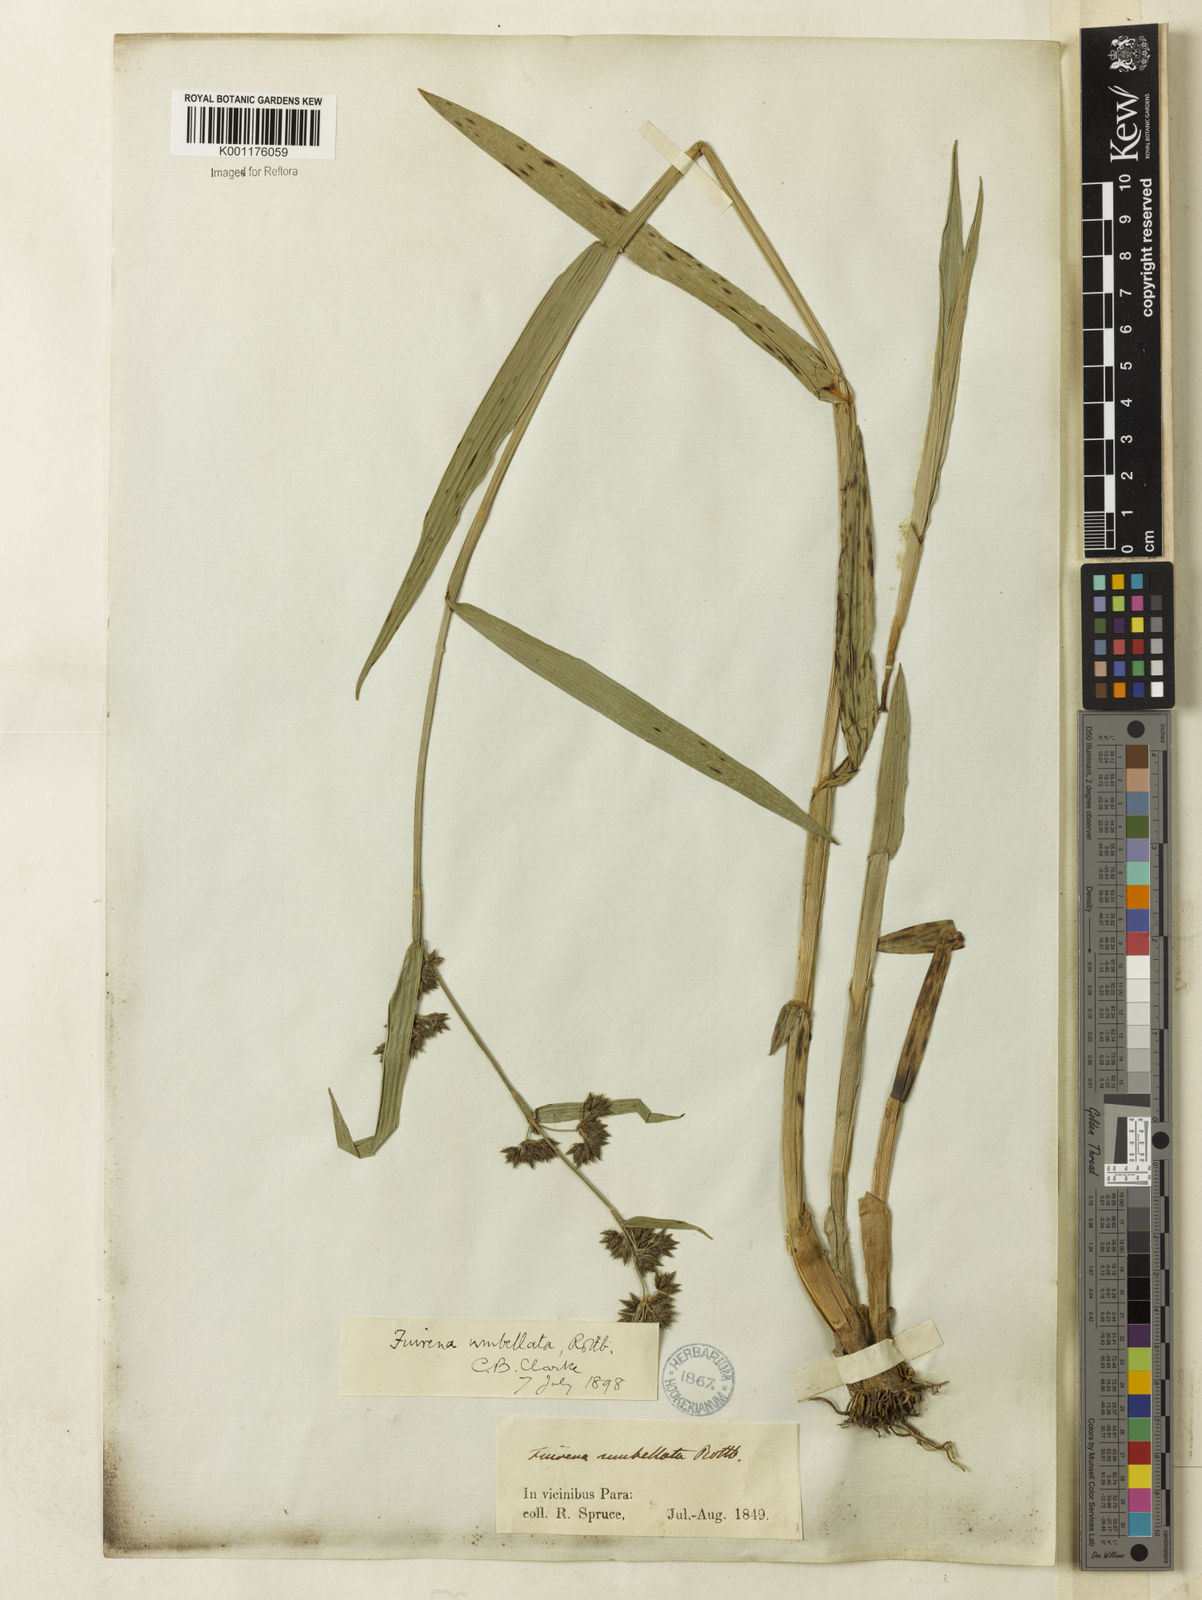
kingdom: Plantae
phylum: Tracheophyta
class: Liliopsida
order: Poales
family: Cyperaceae
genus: Fuirena
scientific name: Fuirena umbellata
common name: Yefen
